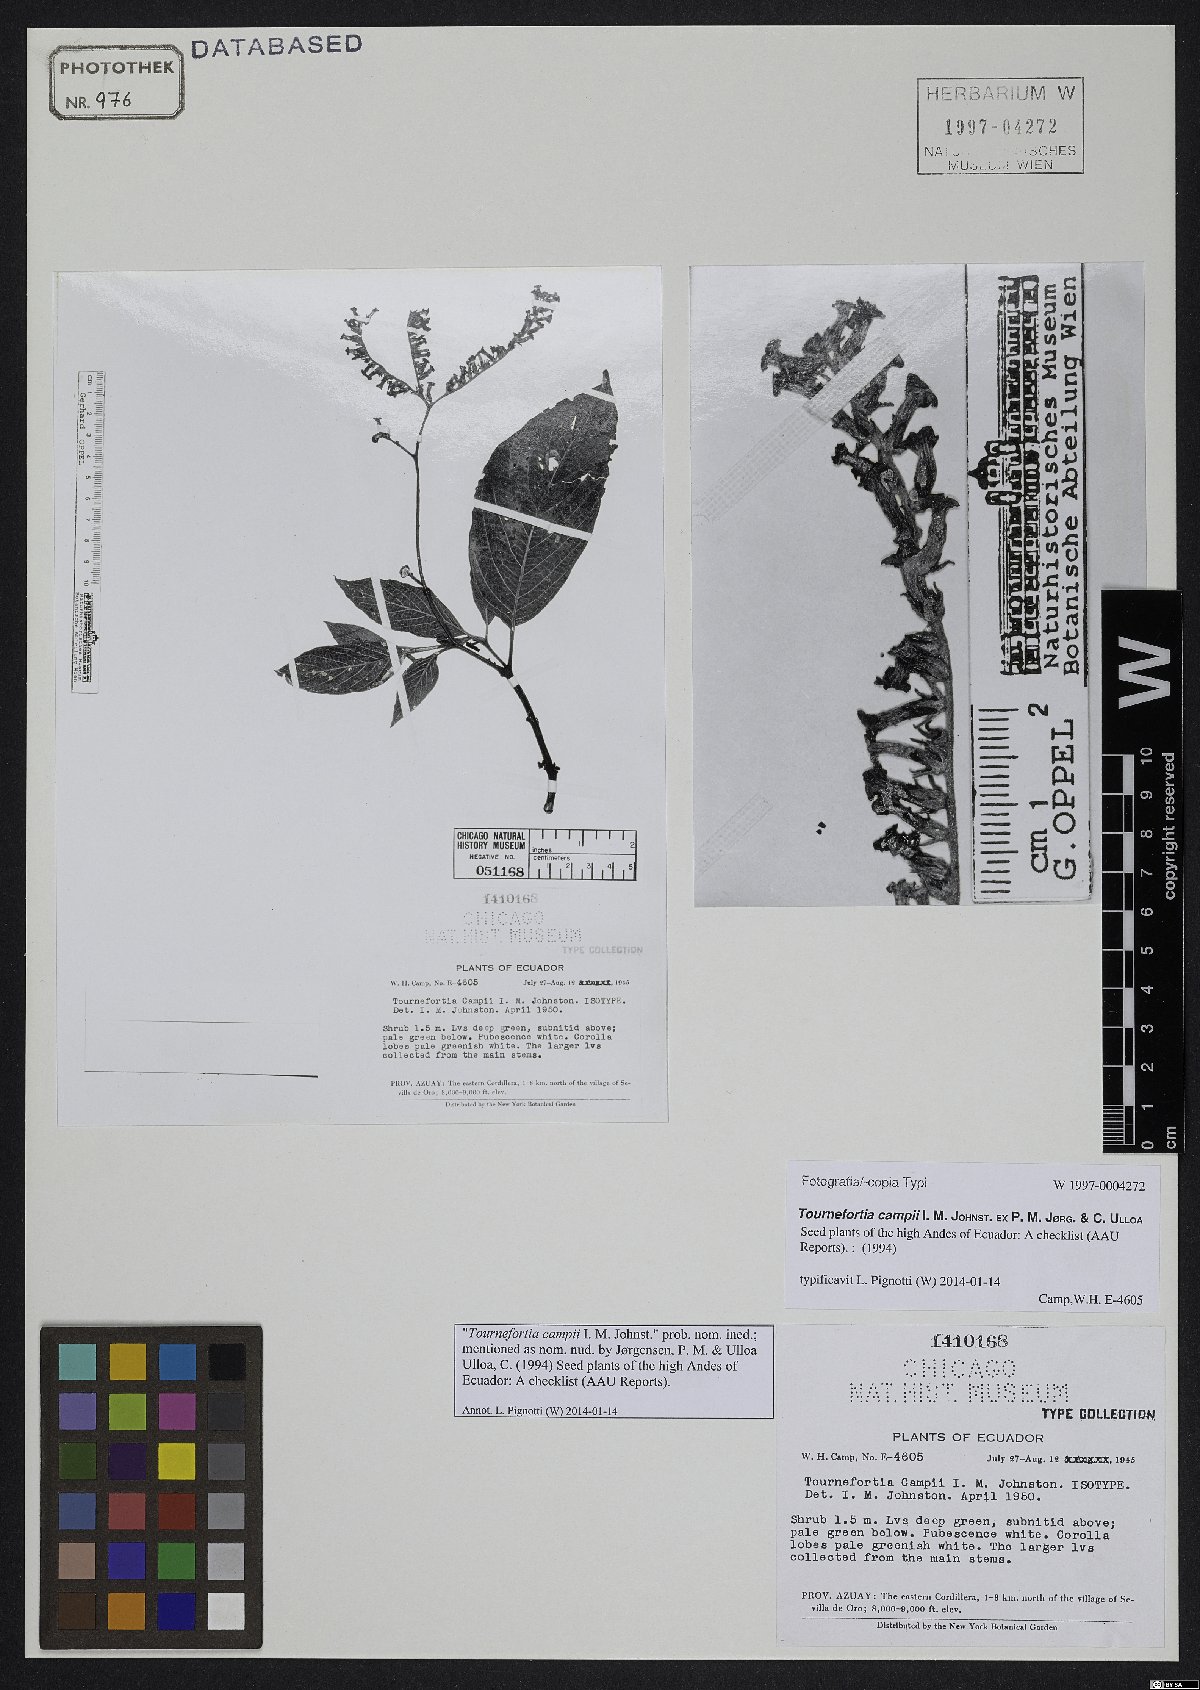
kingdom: Plantae
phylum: Tracheophyta
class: Magnoliopsida
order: Boraginales
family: Heliotropiaceae
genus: Tournefortia
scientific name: Tournefortia
